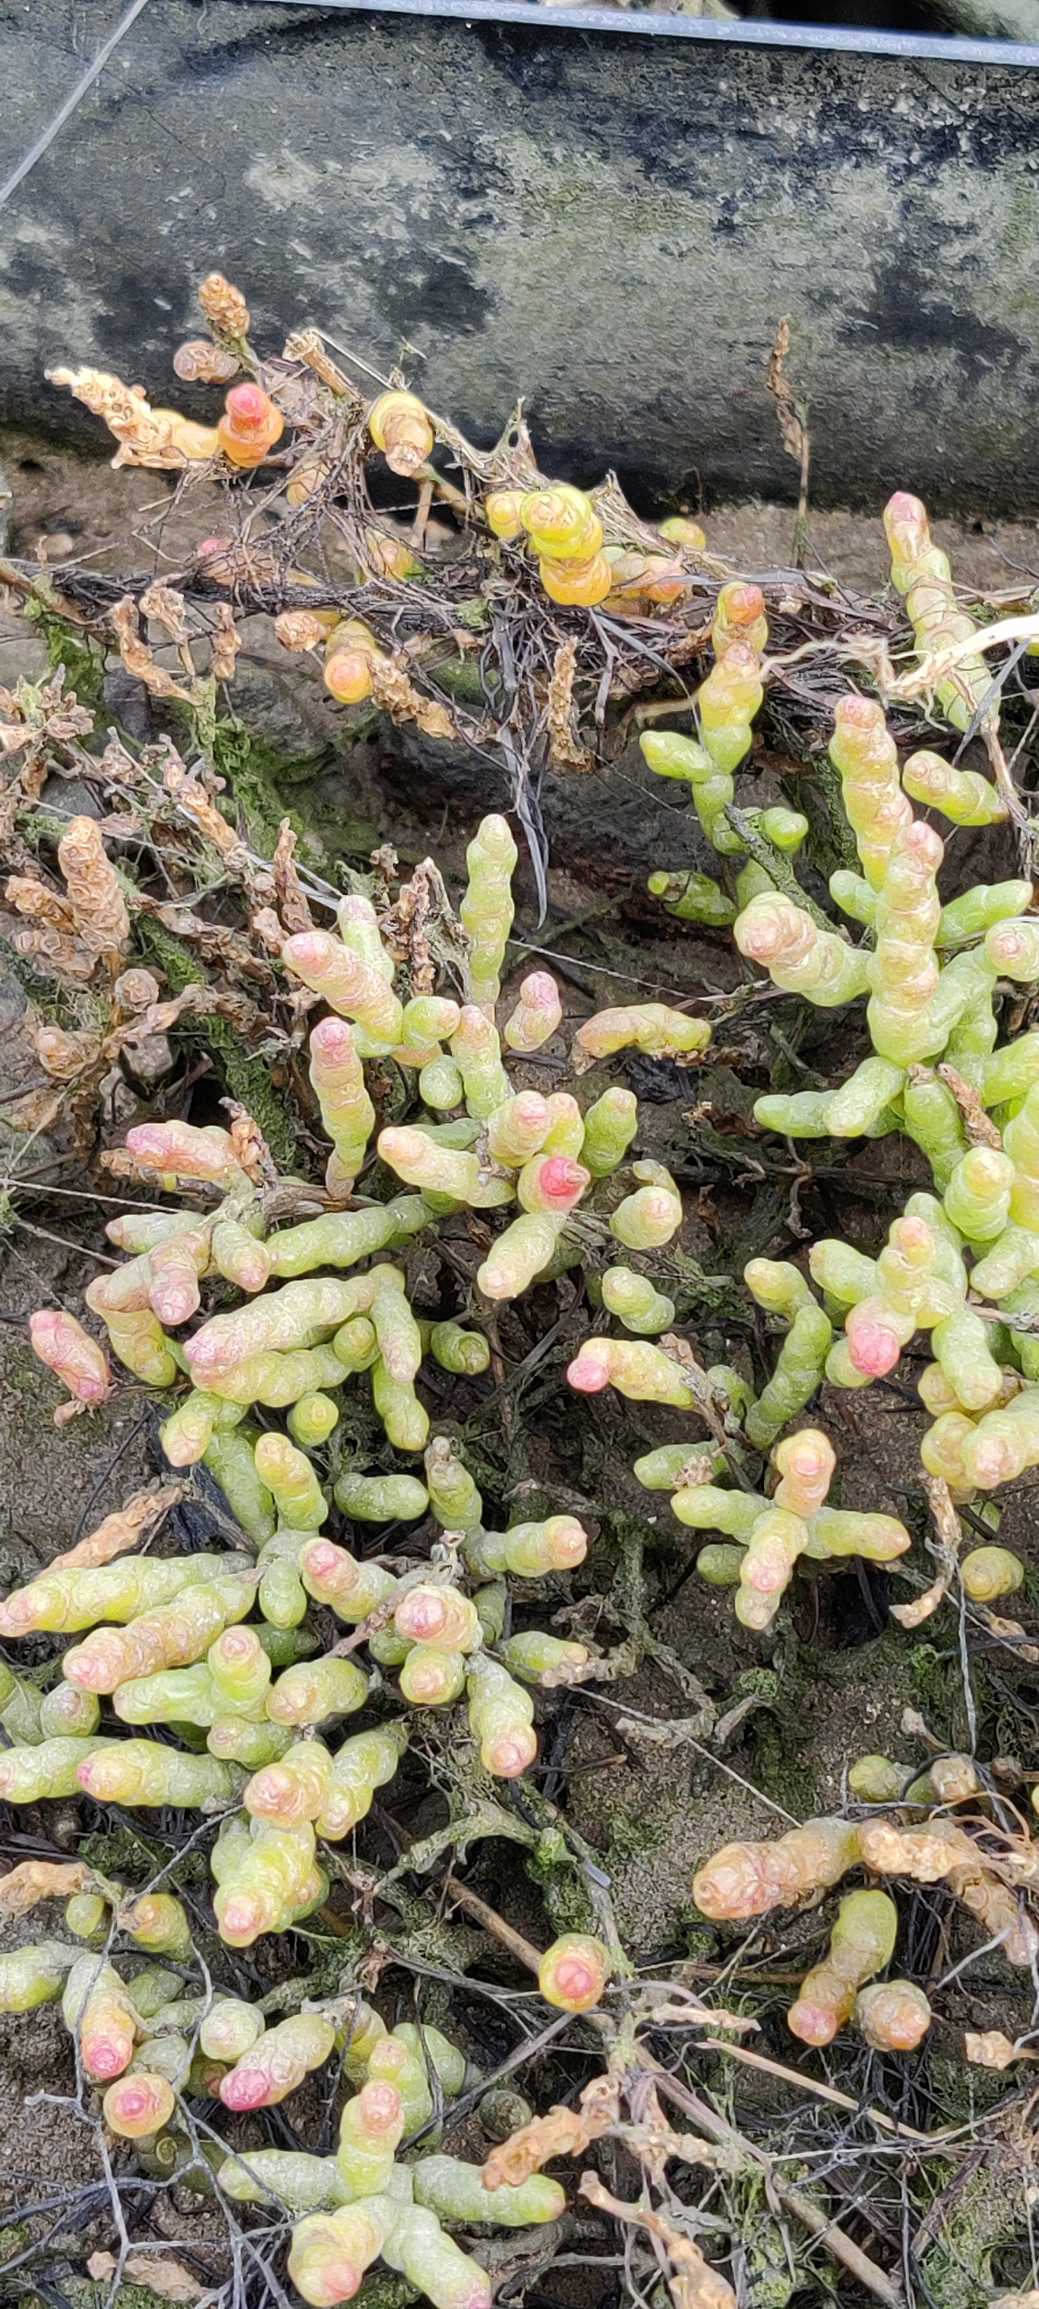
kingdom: Plantae
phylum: Tracheophyta
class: Magnoliopsida
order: Caryophyllales
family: Amaranthaceae
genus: Salicornia
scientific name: Salicornia
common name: Salturtslægten
